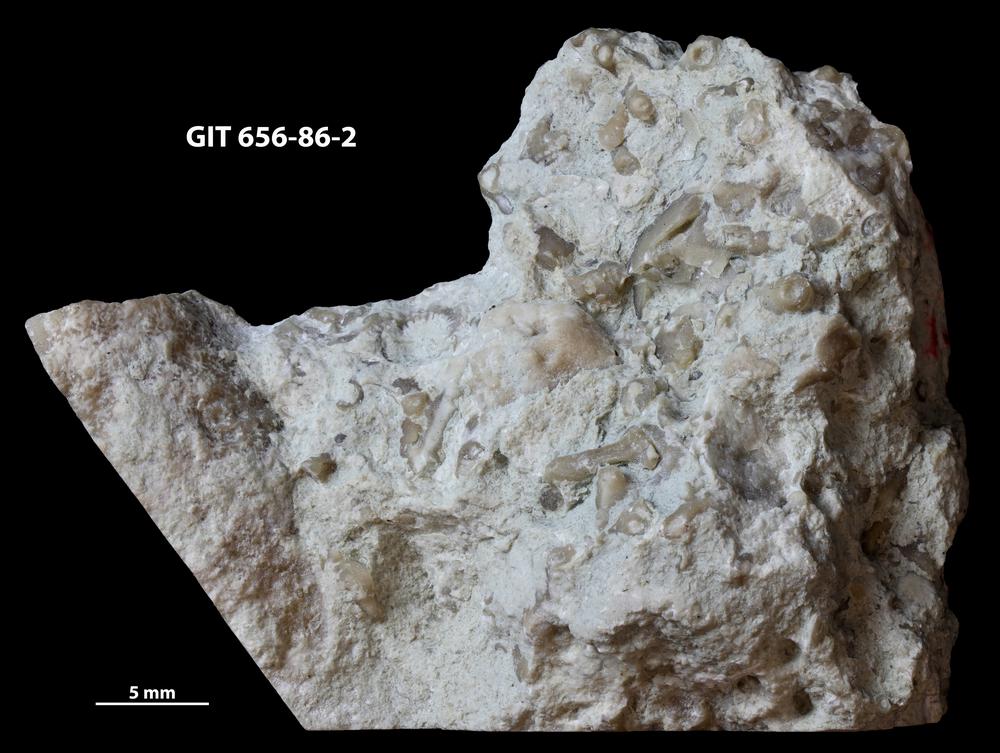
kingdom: Animalia
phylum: Cnidaria
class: Anthozoa
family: Auloporidae
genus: Aulopora
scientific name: Aulopora
